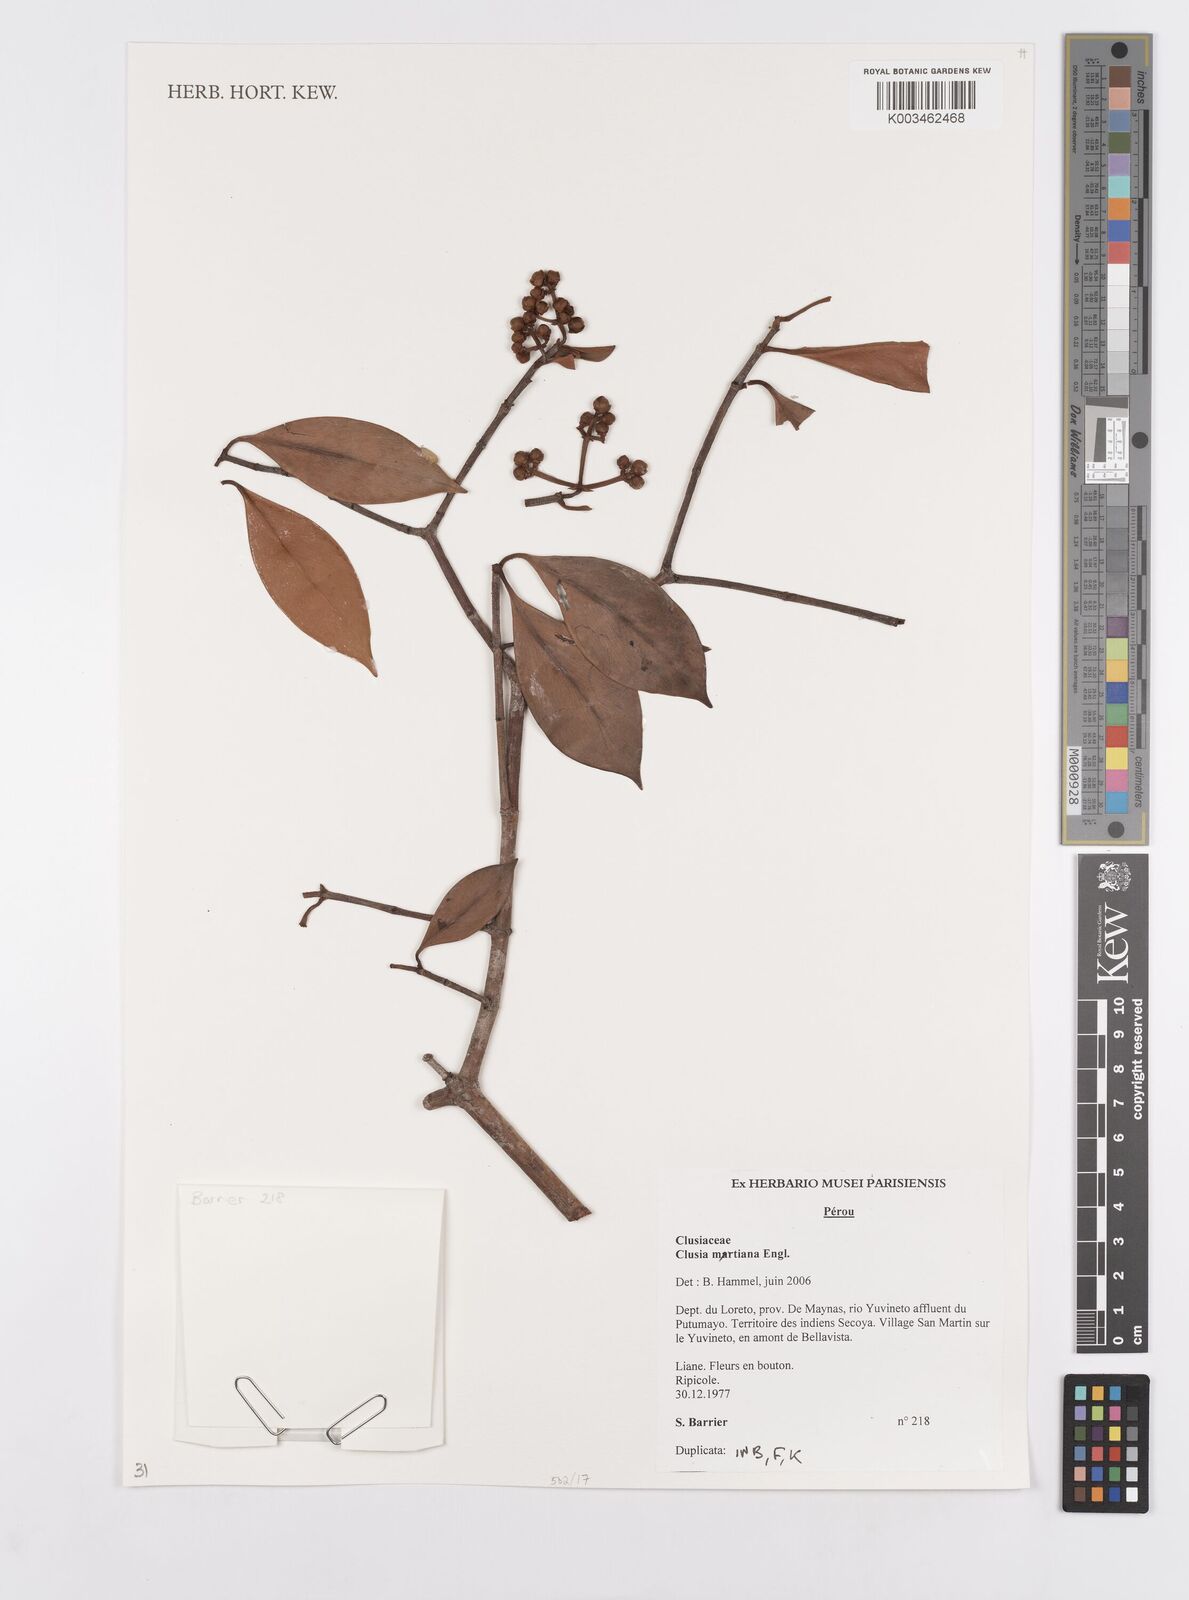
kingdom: Plantae
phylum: Tracheophyta
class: Magnoliopsida
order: Malpighiales
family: Clusiaceae
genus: Clusia
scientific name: Clusia martiana
